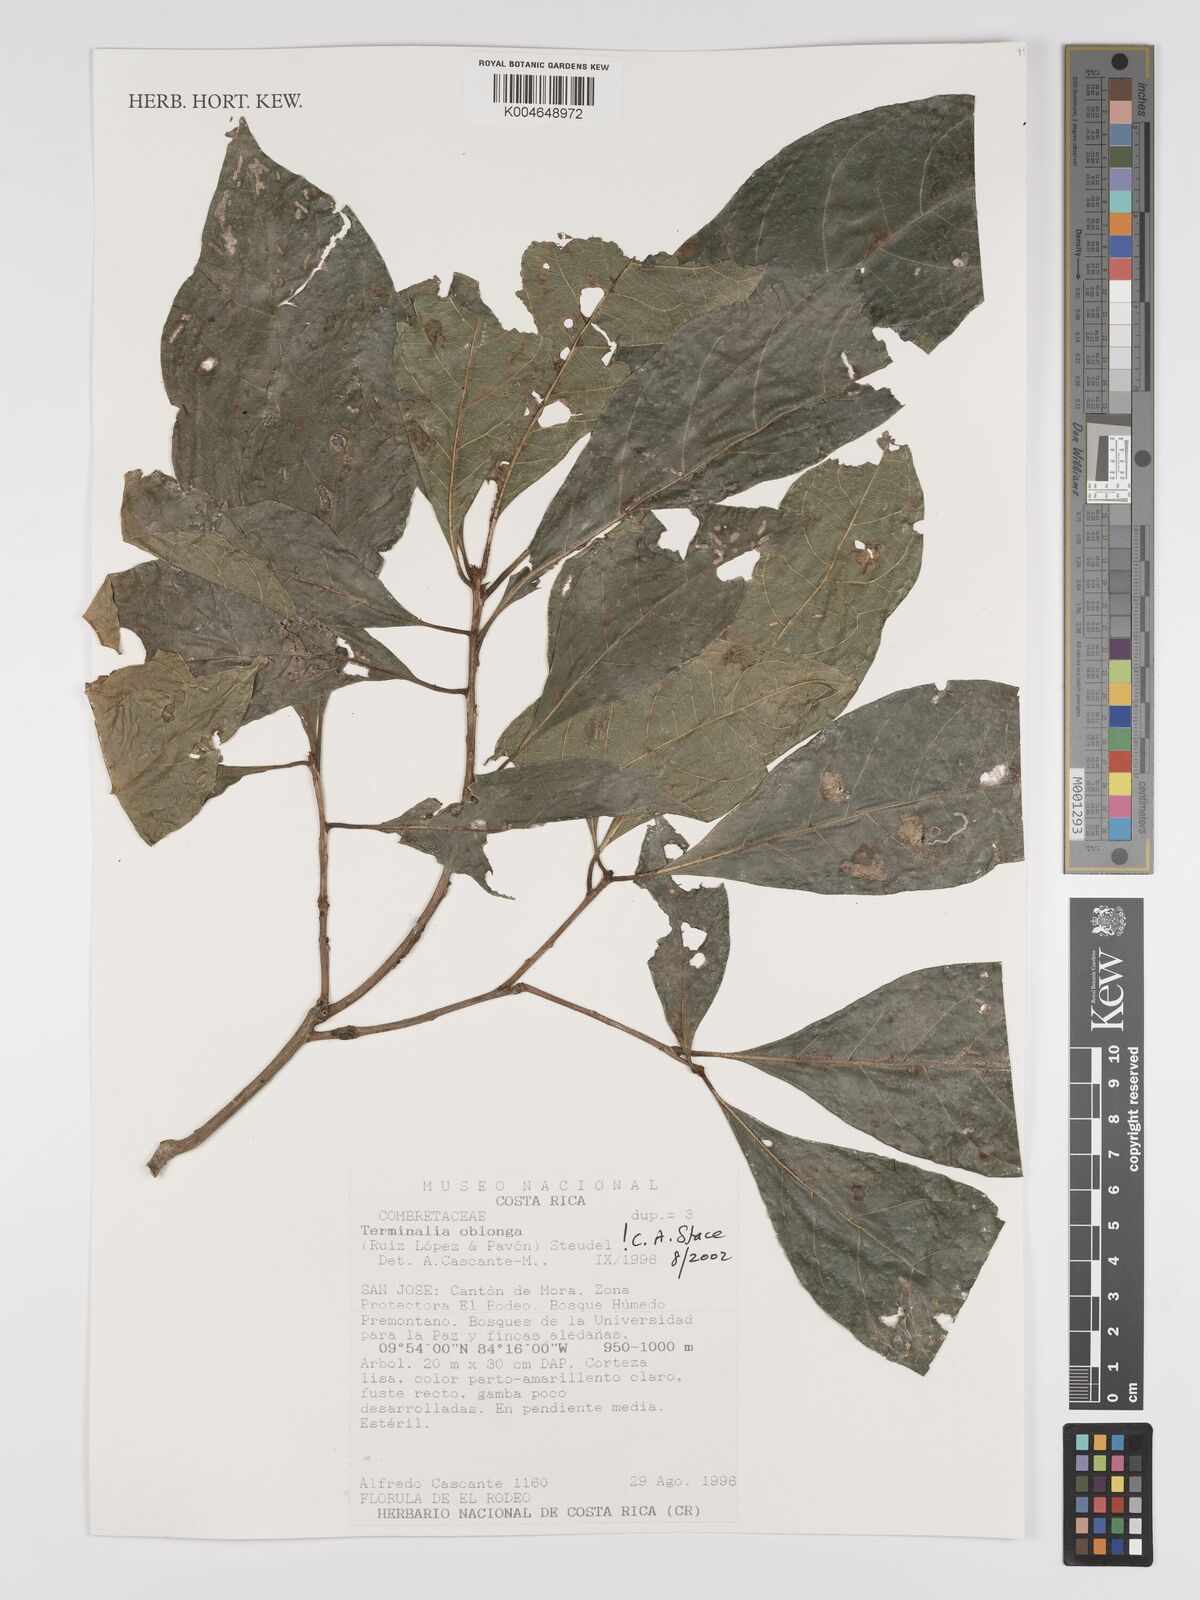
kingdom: Plantae
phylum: Tracheophyta
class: Magnoliopsida
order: Myrtales
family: Combretaceae
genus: Terminalia
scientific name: Terminalia oblonga
